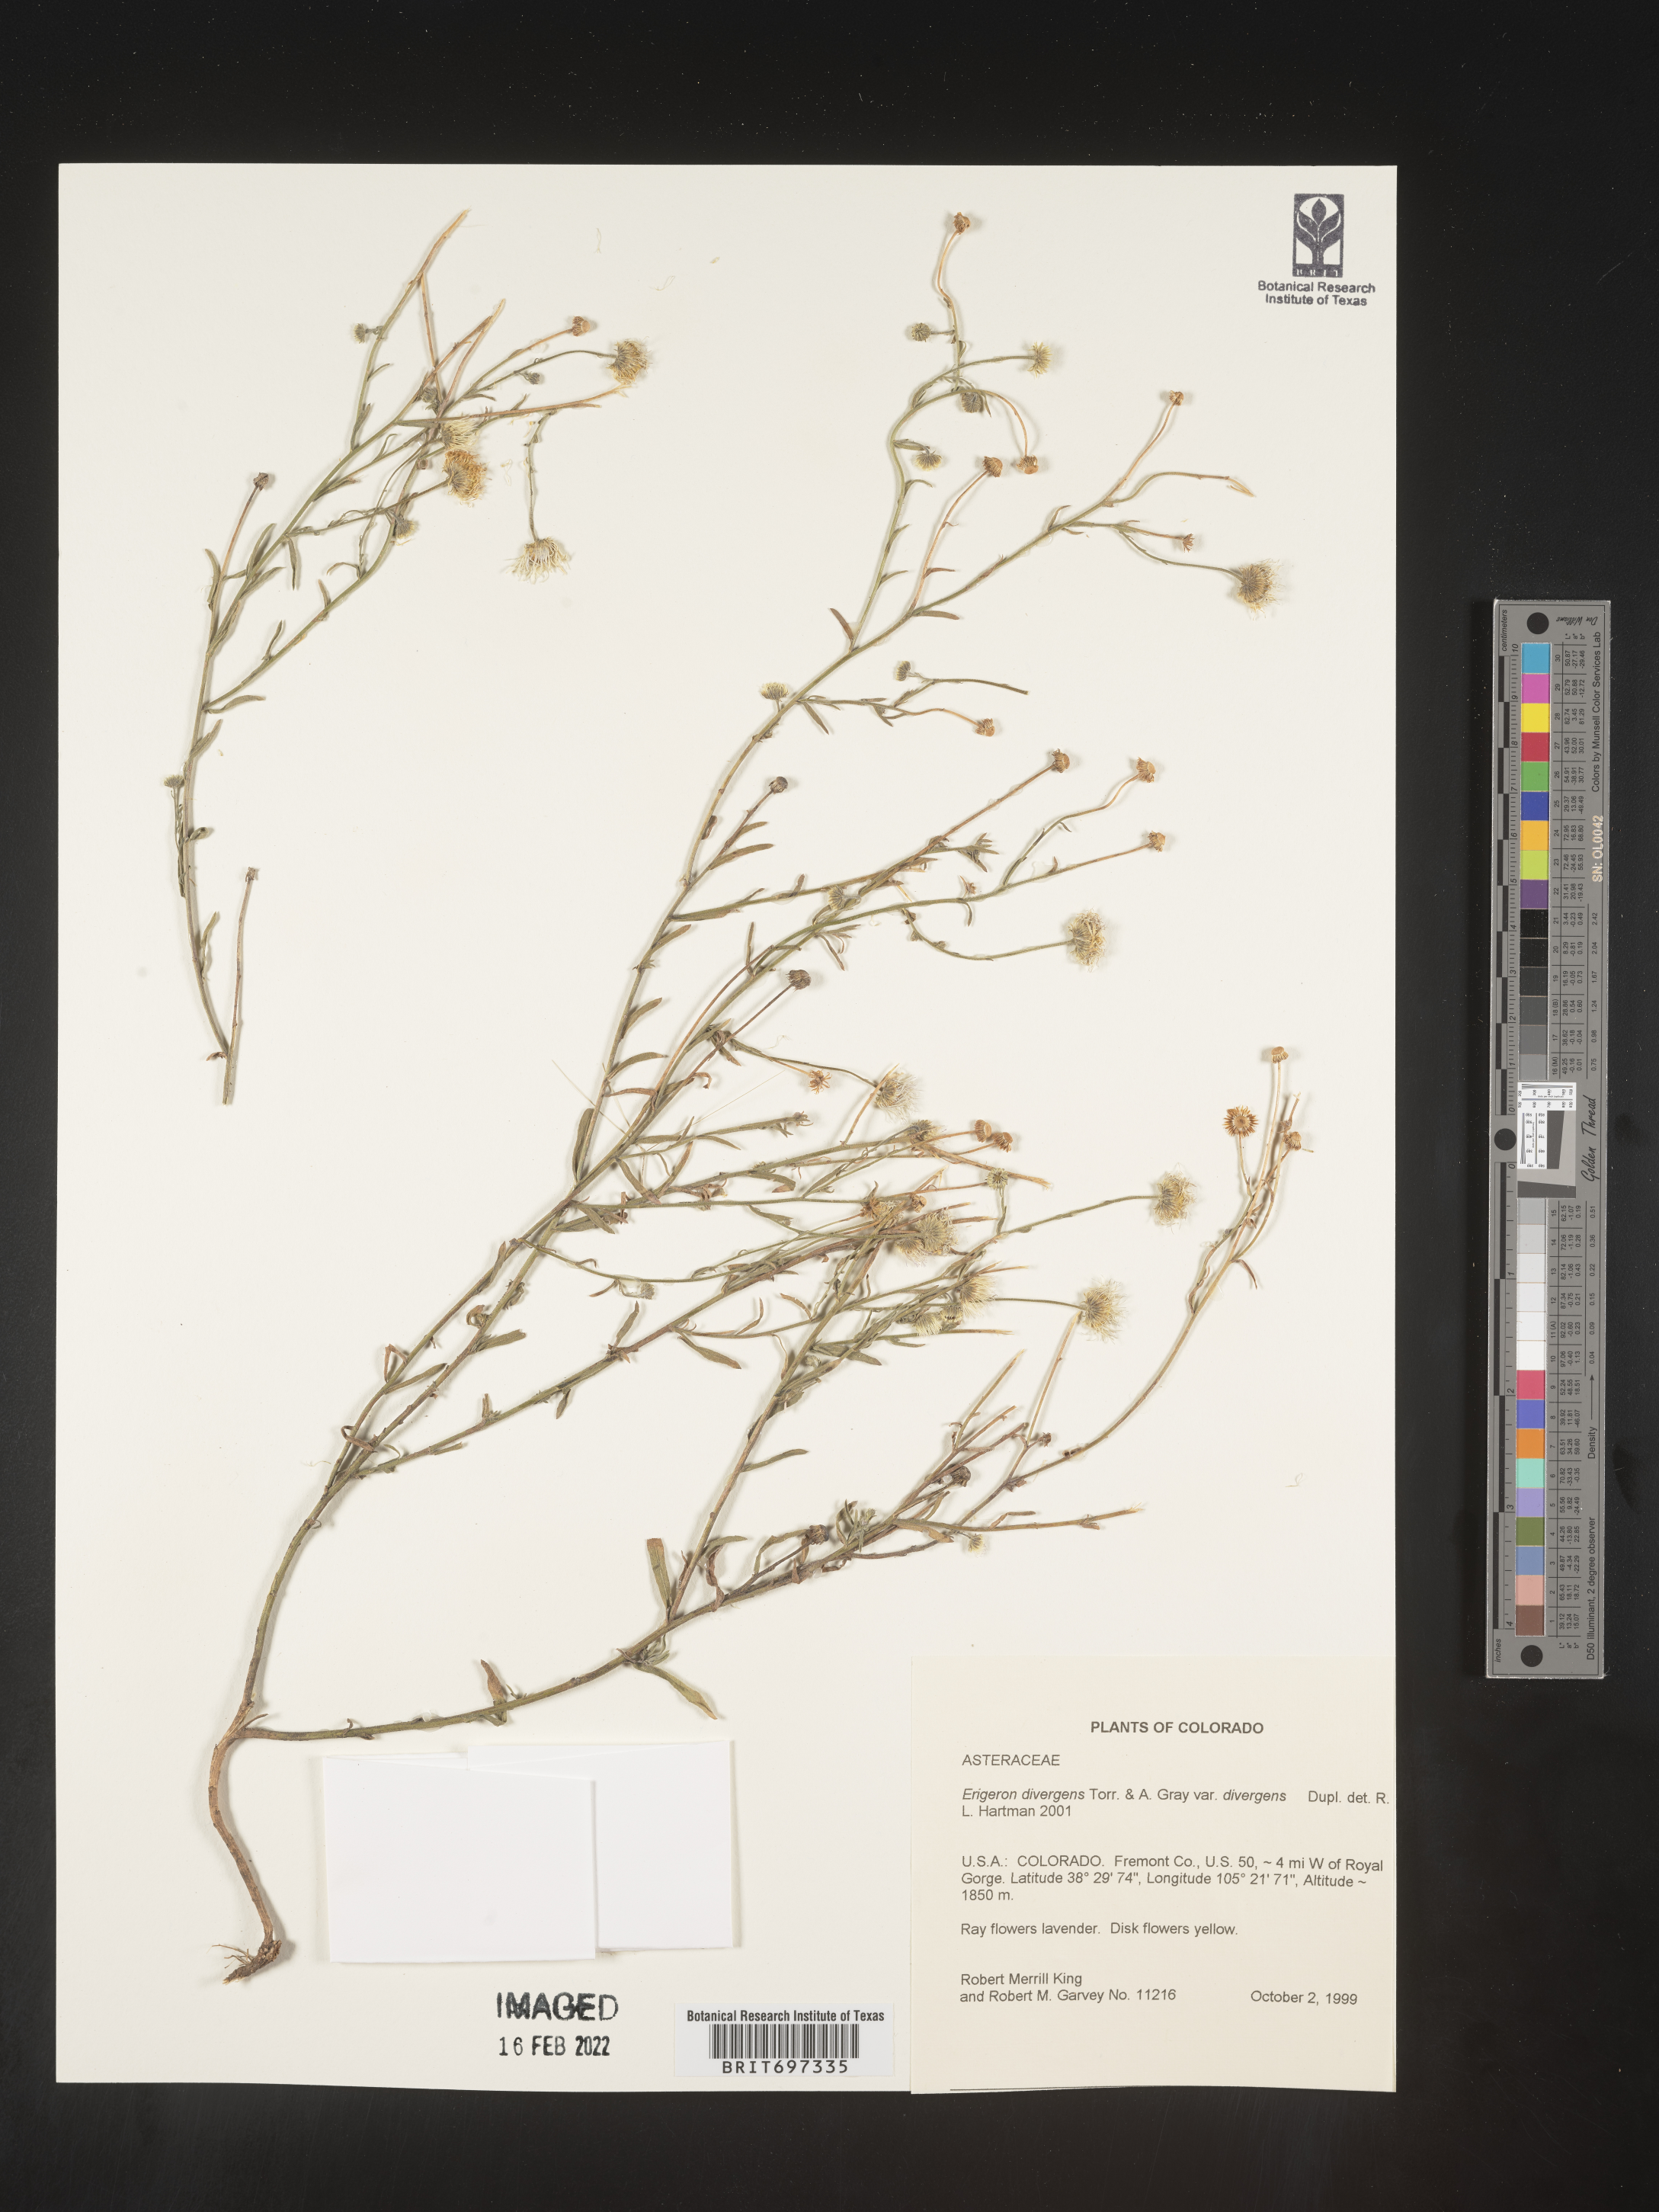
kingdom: Plantae
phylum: Tracheophyta
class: Magnoliopsida
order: Asterales
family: Asteraceae
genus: Erigeron
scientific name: Erigeron divergens
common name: Diffuse fleabane
